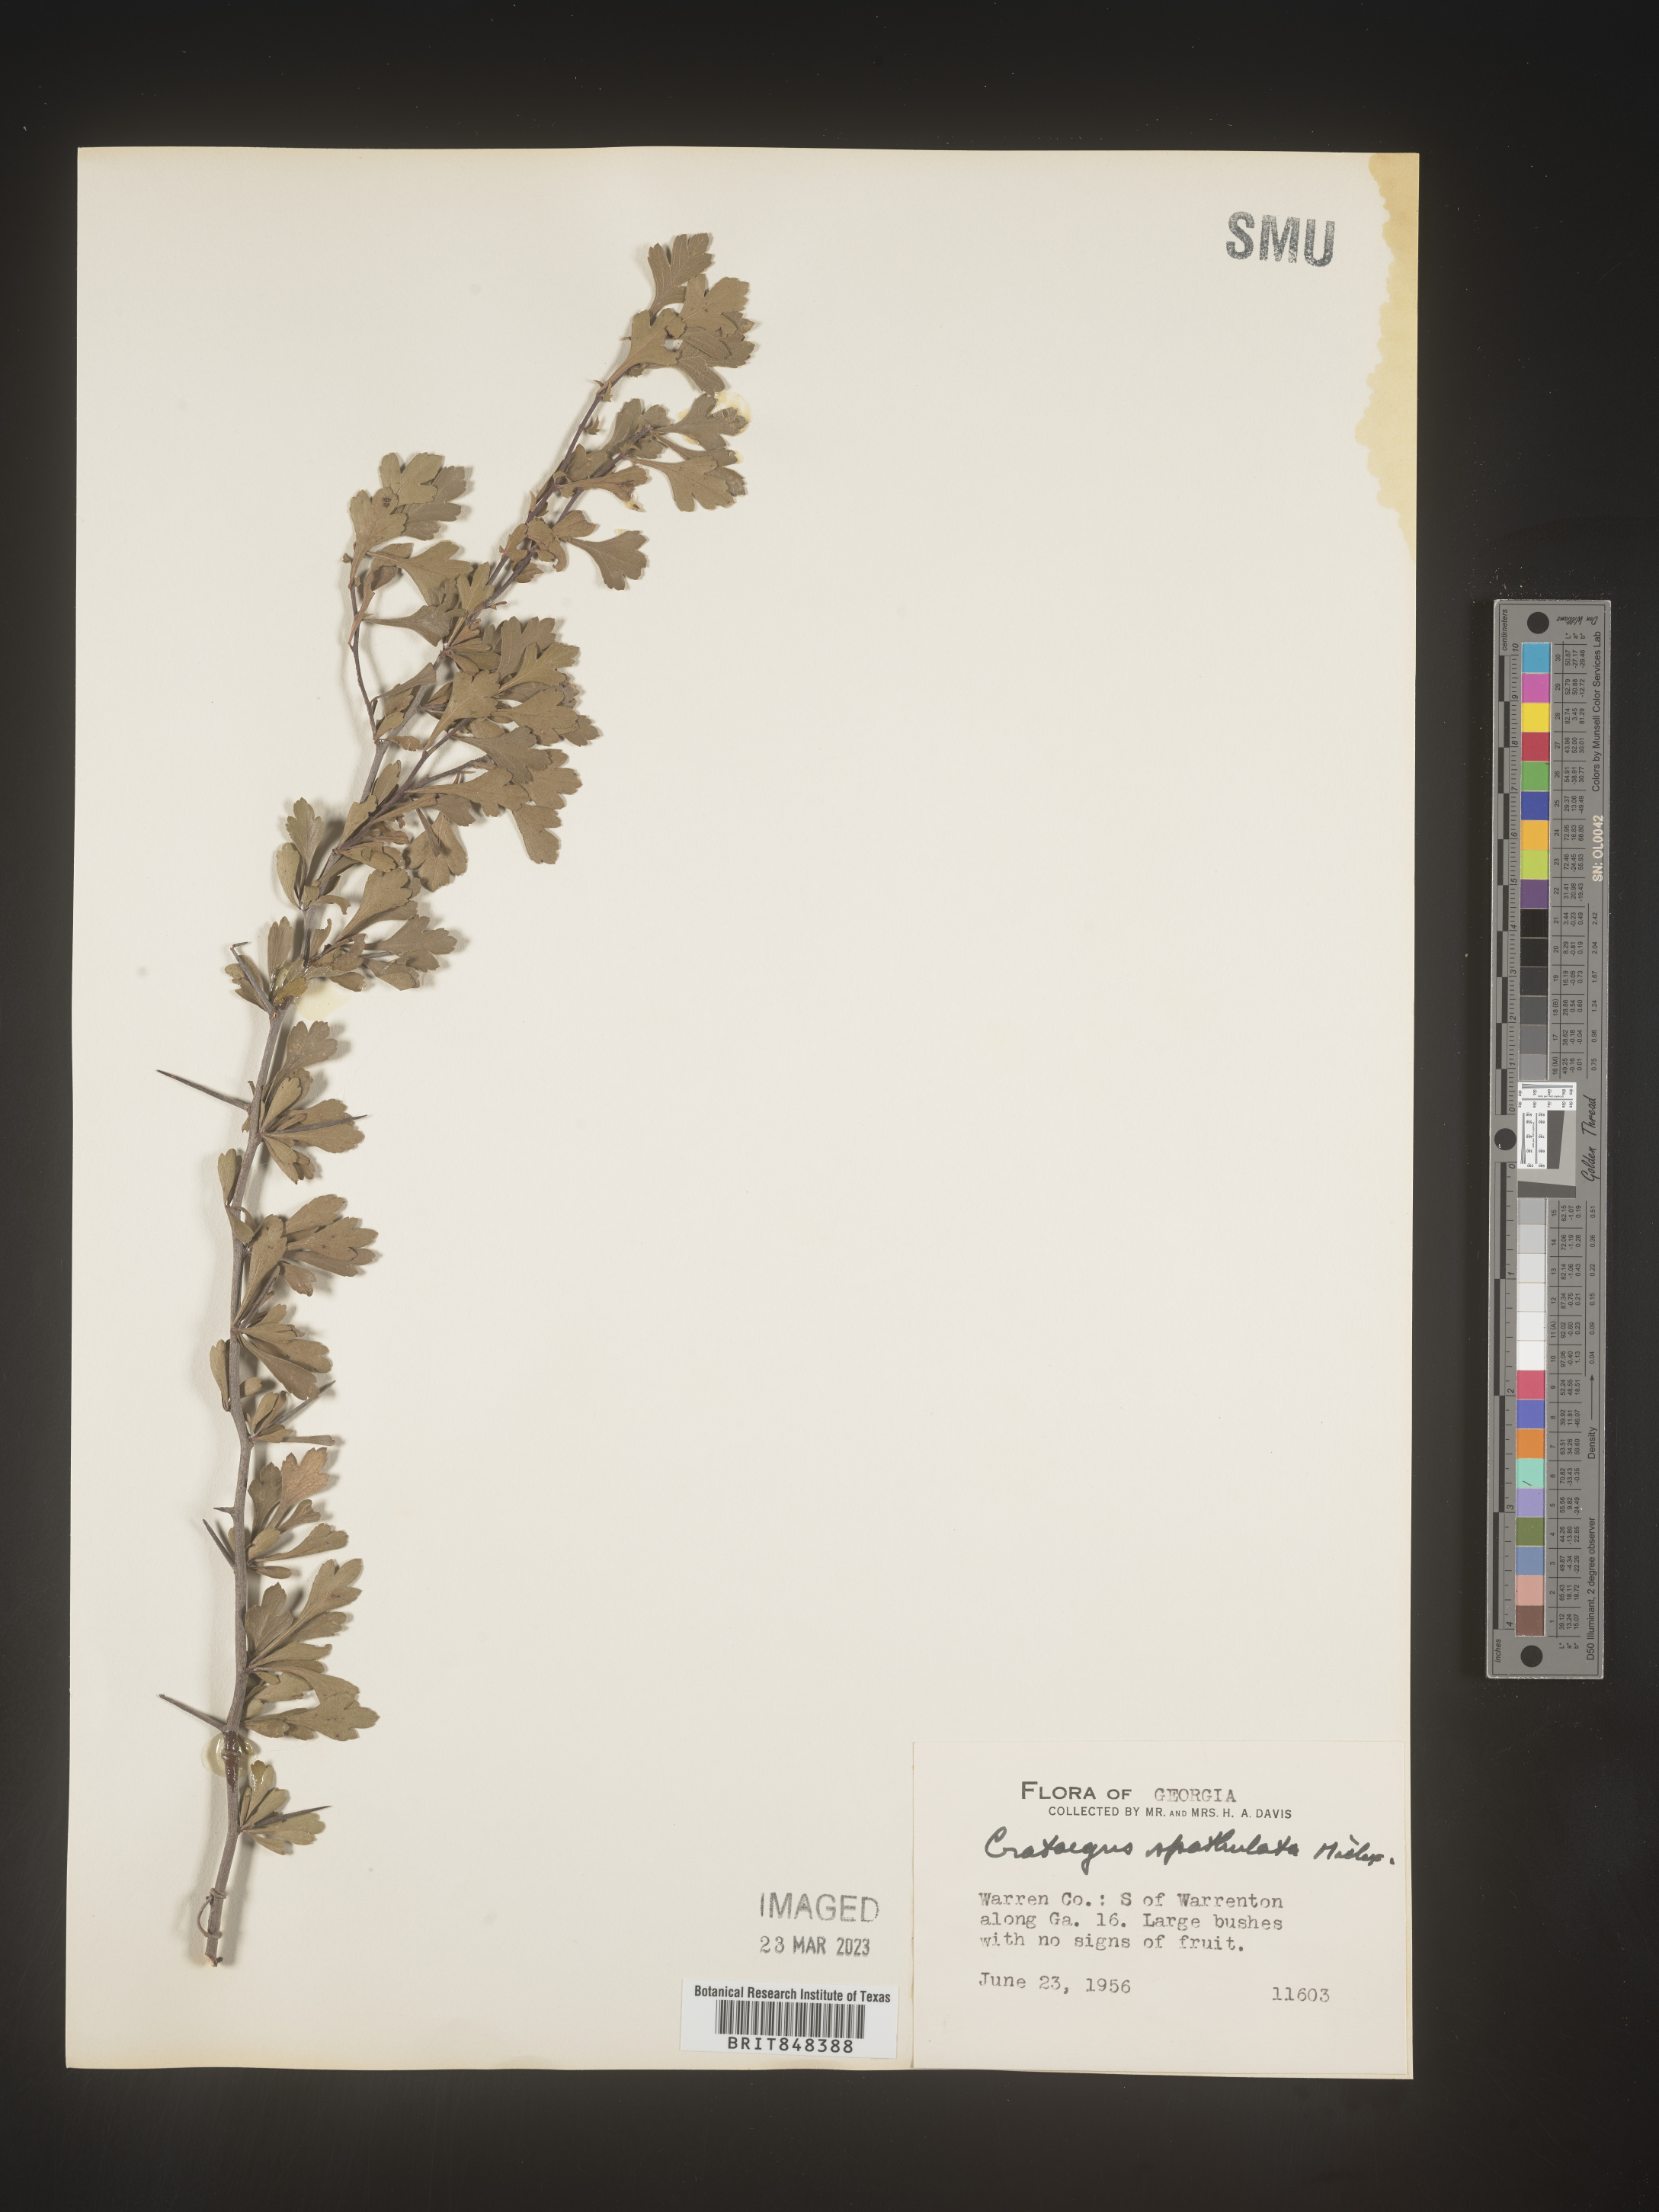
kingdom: Plantae
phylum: Tracheophyta
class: Magnoliopsida
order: Rosales
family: Rosaceae
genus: Crataegus
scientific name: Crataegus spathulata
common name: Littlehip hawthorn
